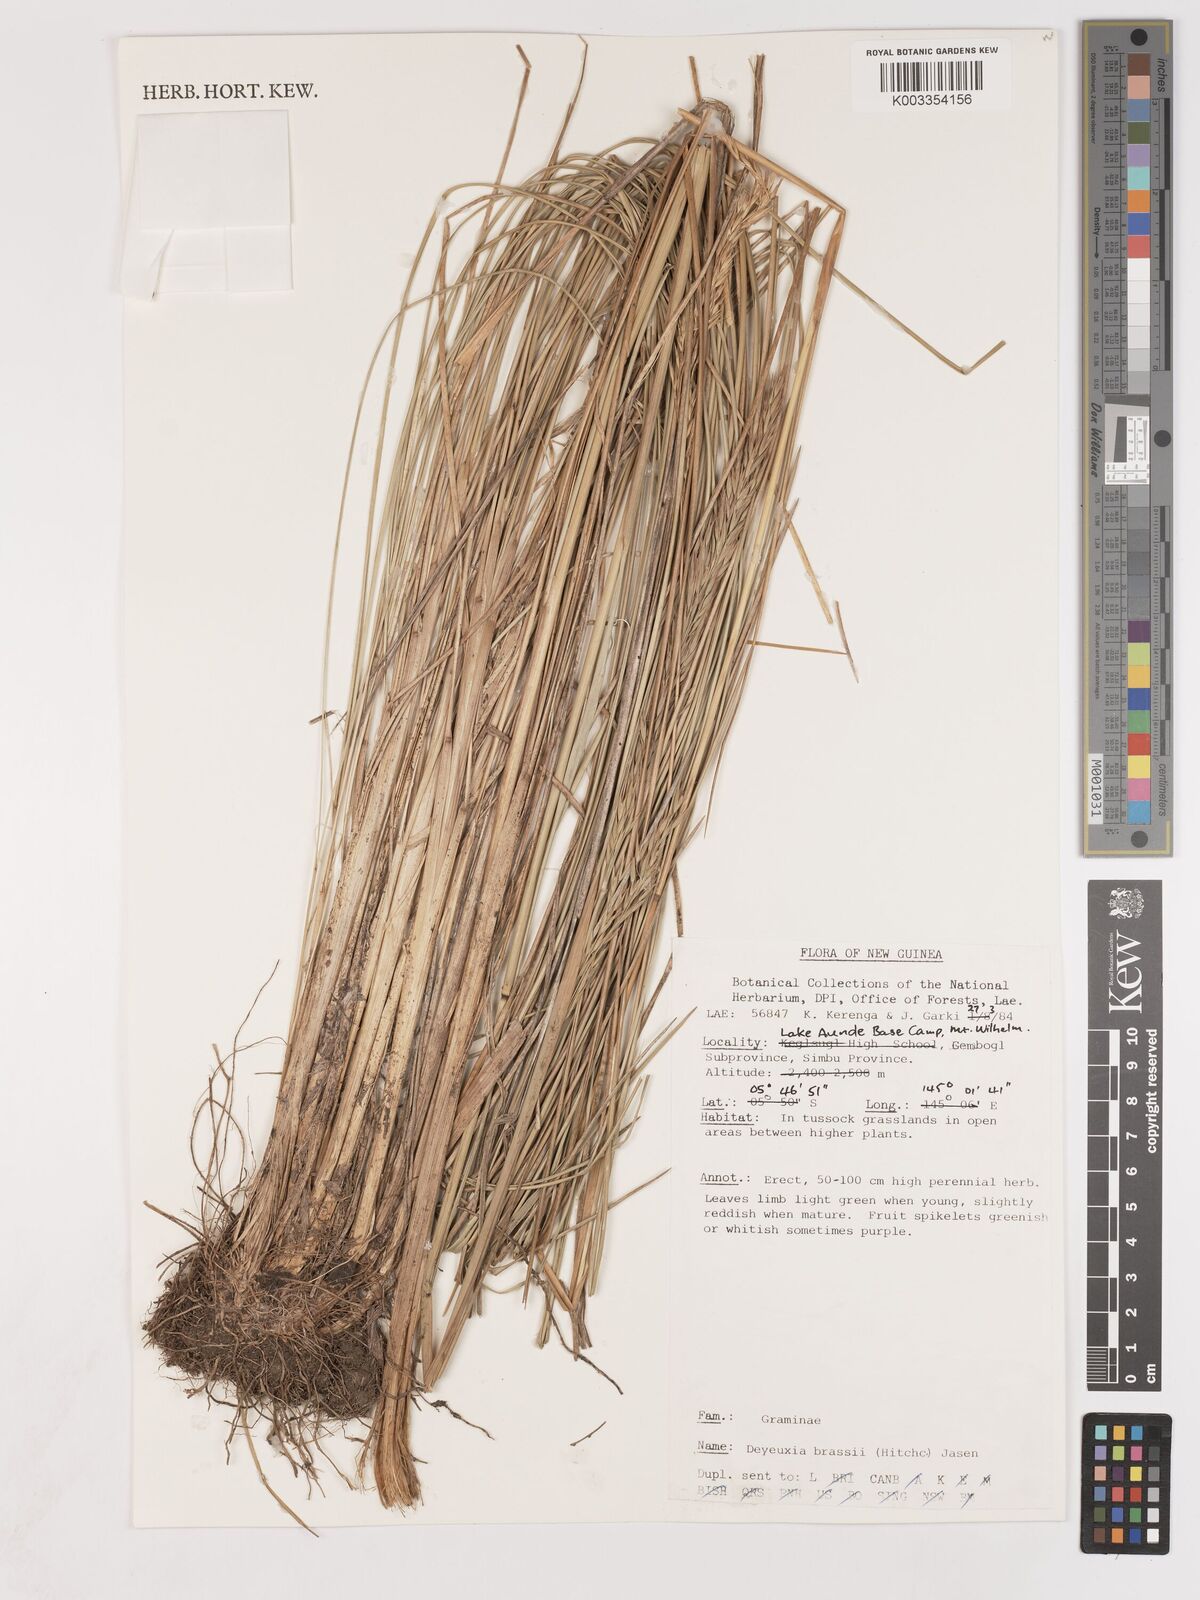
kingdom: Plantae
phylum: Tracheophyta
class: Liliopsida
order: Poales
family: Poaceae
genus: Calamagrostis
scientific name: Calamagrostis brassii
